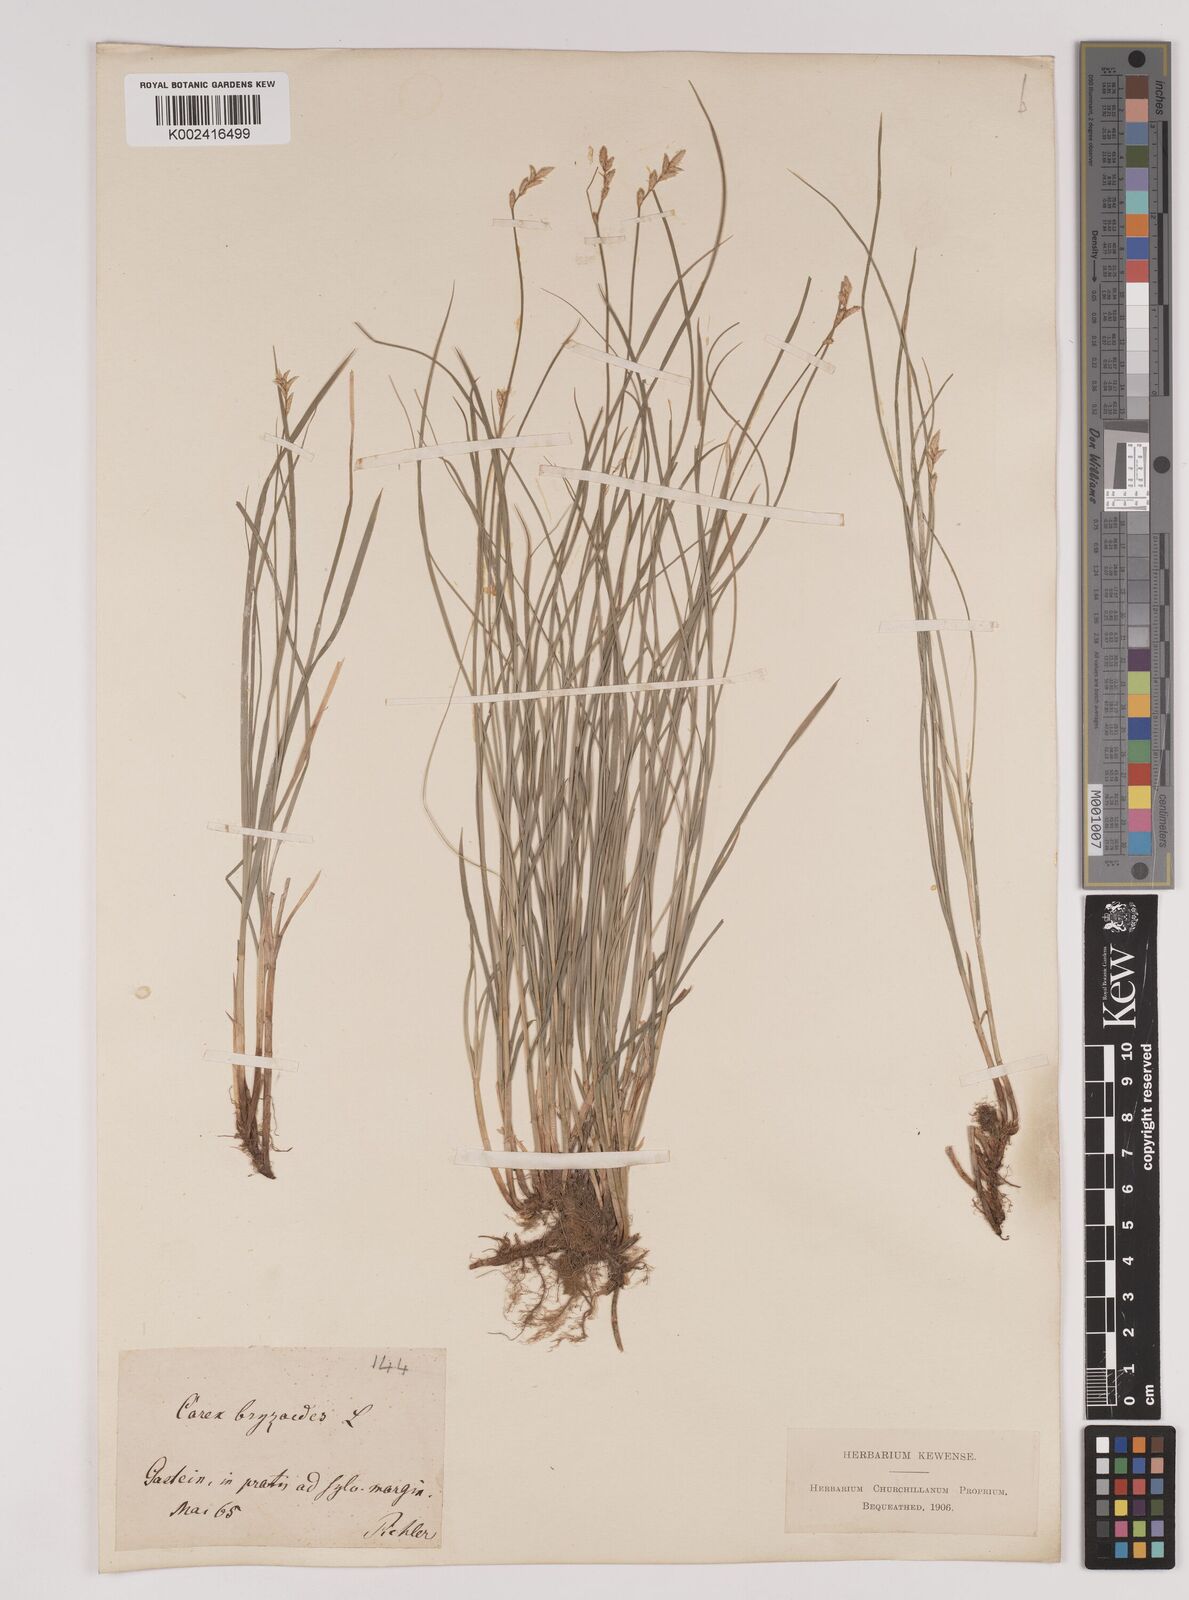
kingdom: Plantae
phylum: Tracheophyta
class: Liliopsida
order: Poales
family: Cyperaceae
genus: Carex
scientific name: Carex brizoides
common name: Quaking-grass sedge
